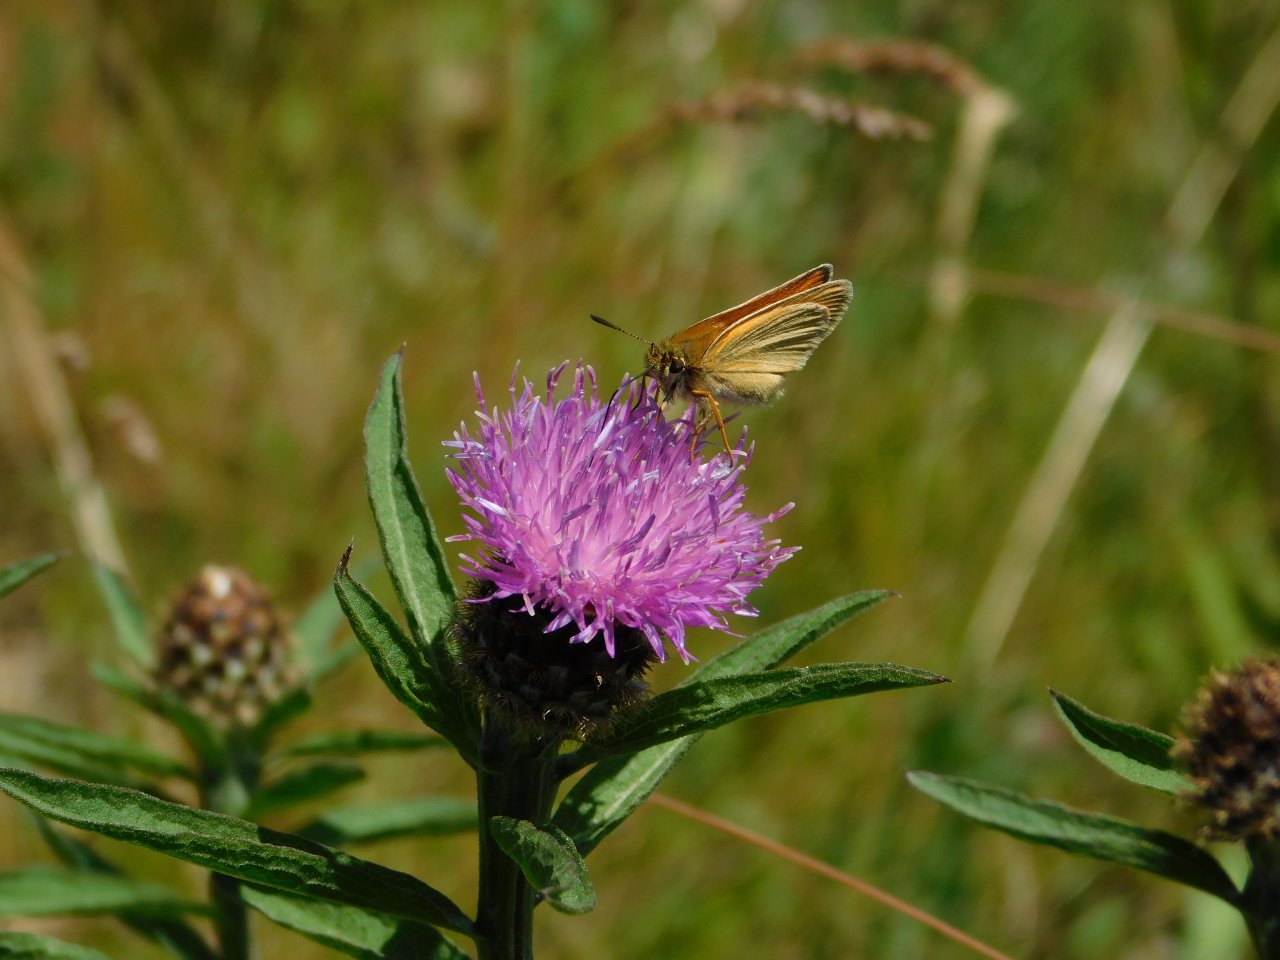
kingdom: Animalia
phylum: Arthropoda
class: Insecta
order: Lepidoptera
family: Hesperiidae
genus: Thymelicus
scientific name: Thymelicus lineola
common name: European Skipper
